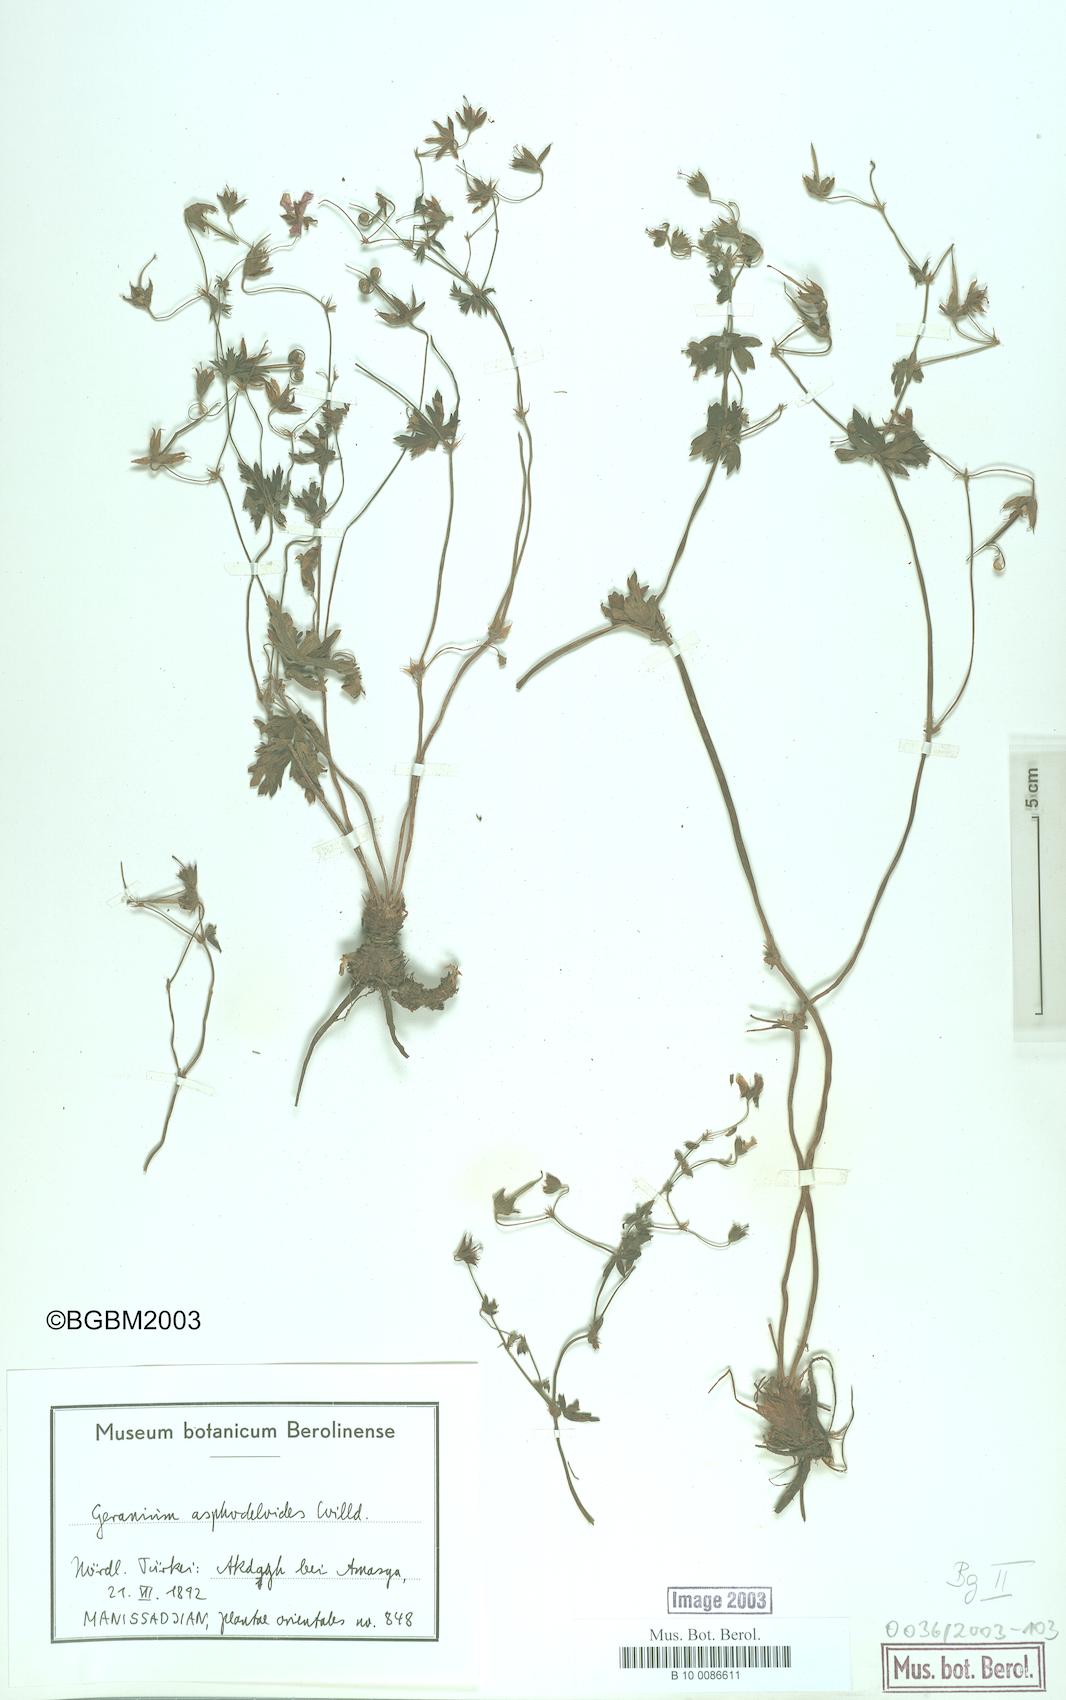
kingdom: Plantae
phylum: Tracheophyta
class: Magnoliopsida
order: Geraniales
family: Geraniaceae
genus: Geranium
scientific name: Geranium asphodeloides
